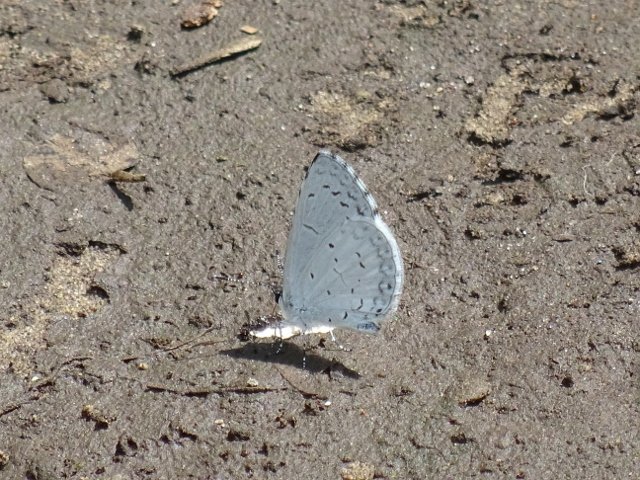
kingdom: Animalia
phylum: Arthropoda
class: Insecta
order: Lepidoptera
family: Lycaenidae
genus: Cyaniris
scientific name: Cyaniris neglecta
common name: Summer Azure
